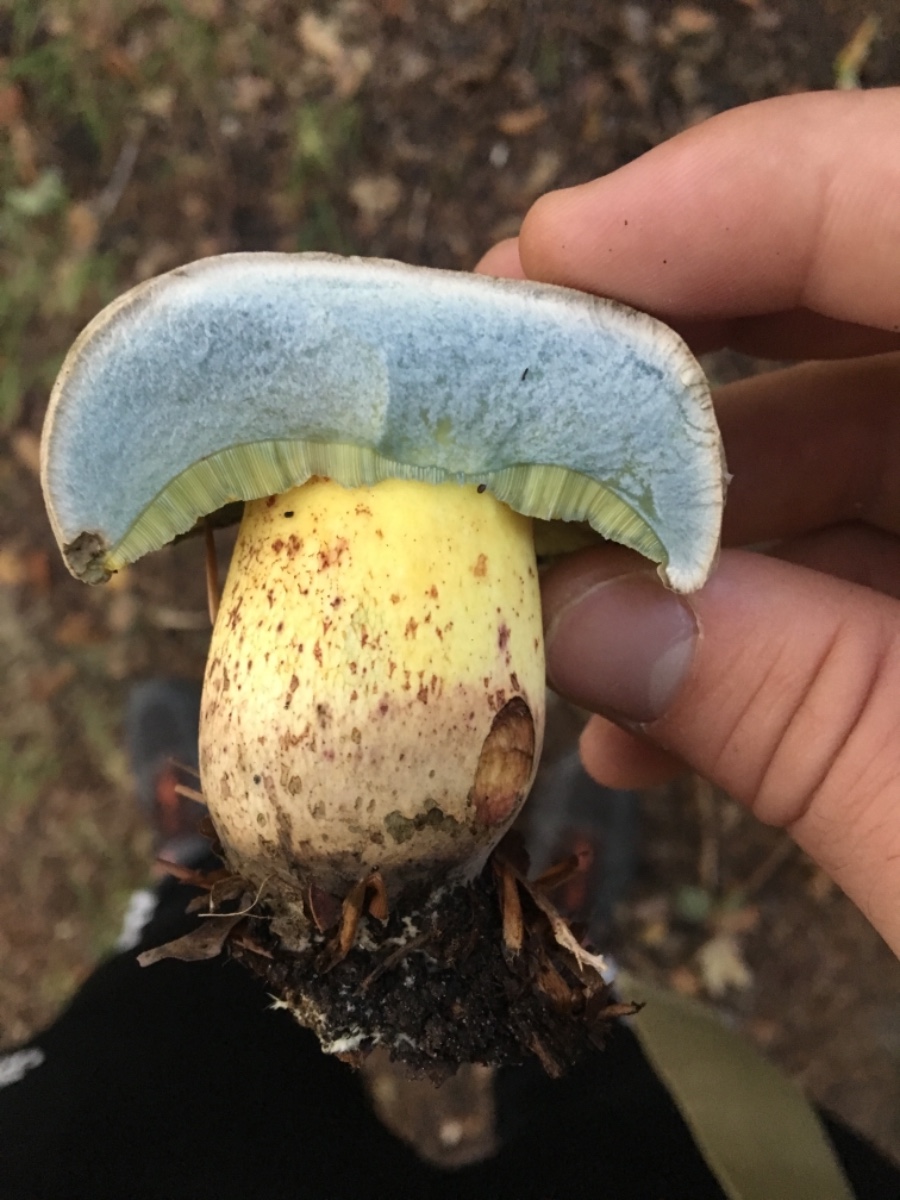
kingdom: Fungi
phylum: Basidiomycota
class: Agaricomycetes
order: Boletales
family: Boletaceae
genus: Caloboletus
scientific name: Caloboletus radicans
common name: rod-rørhat
